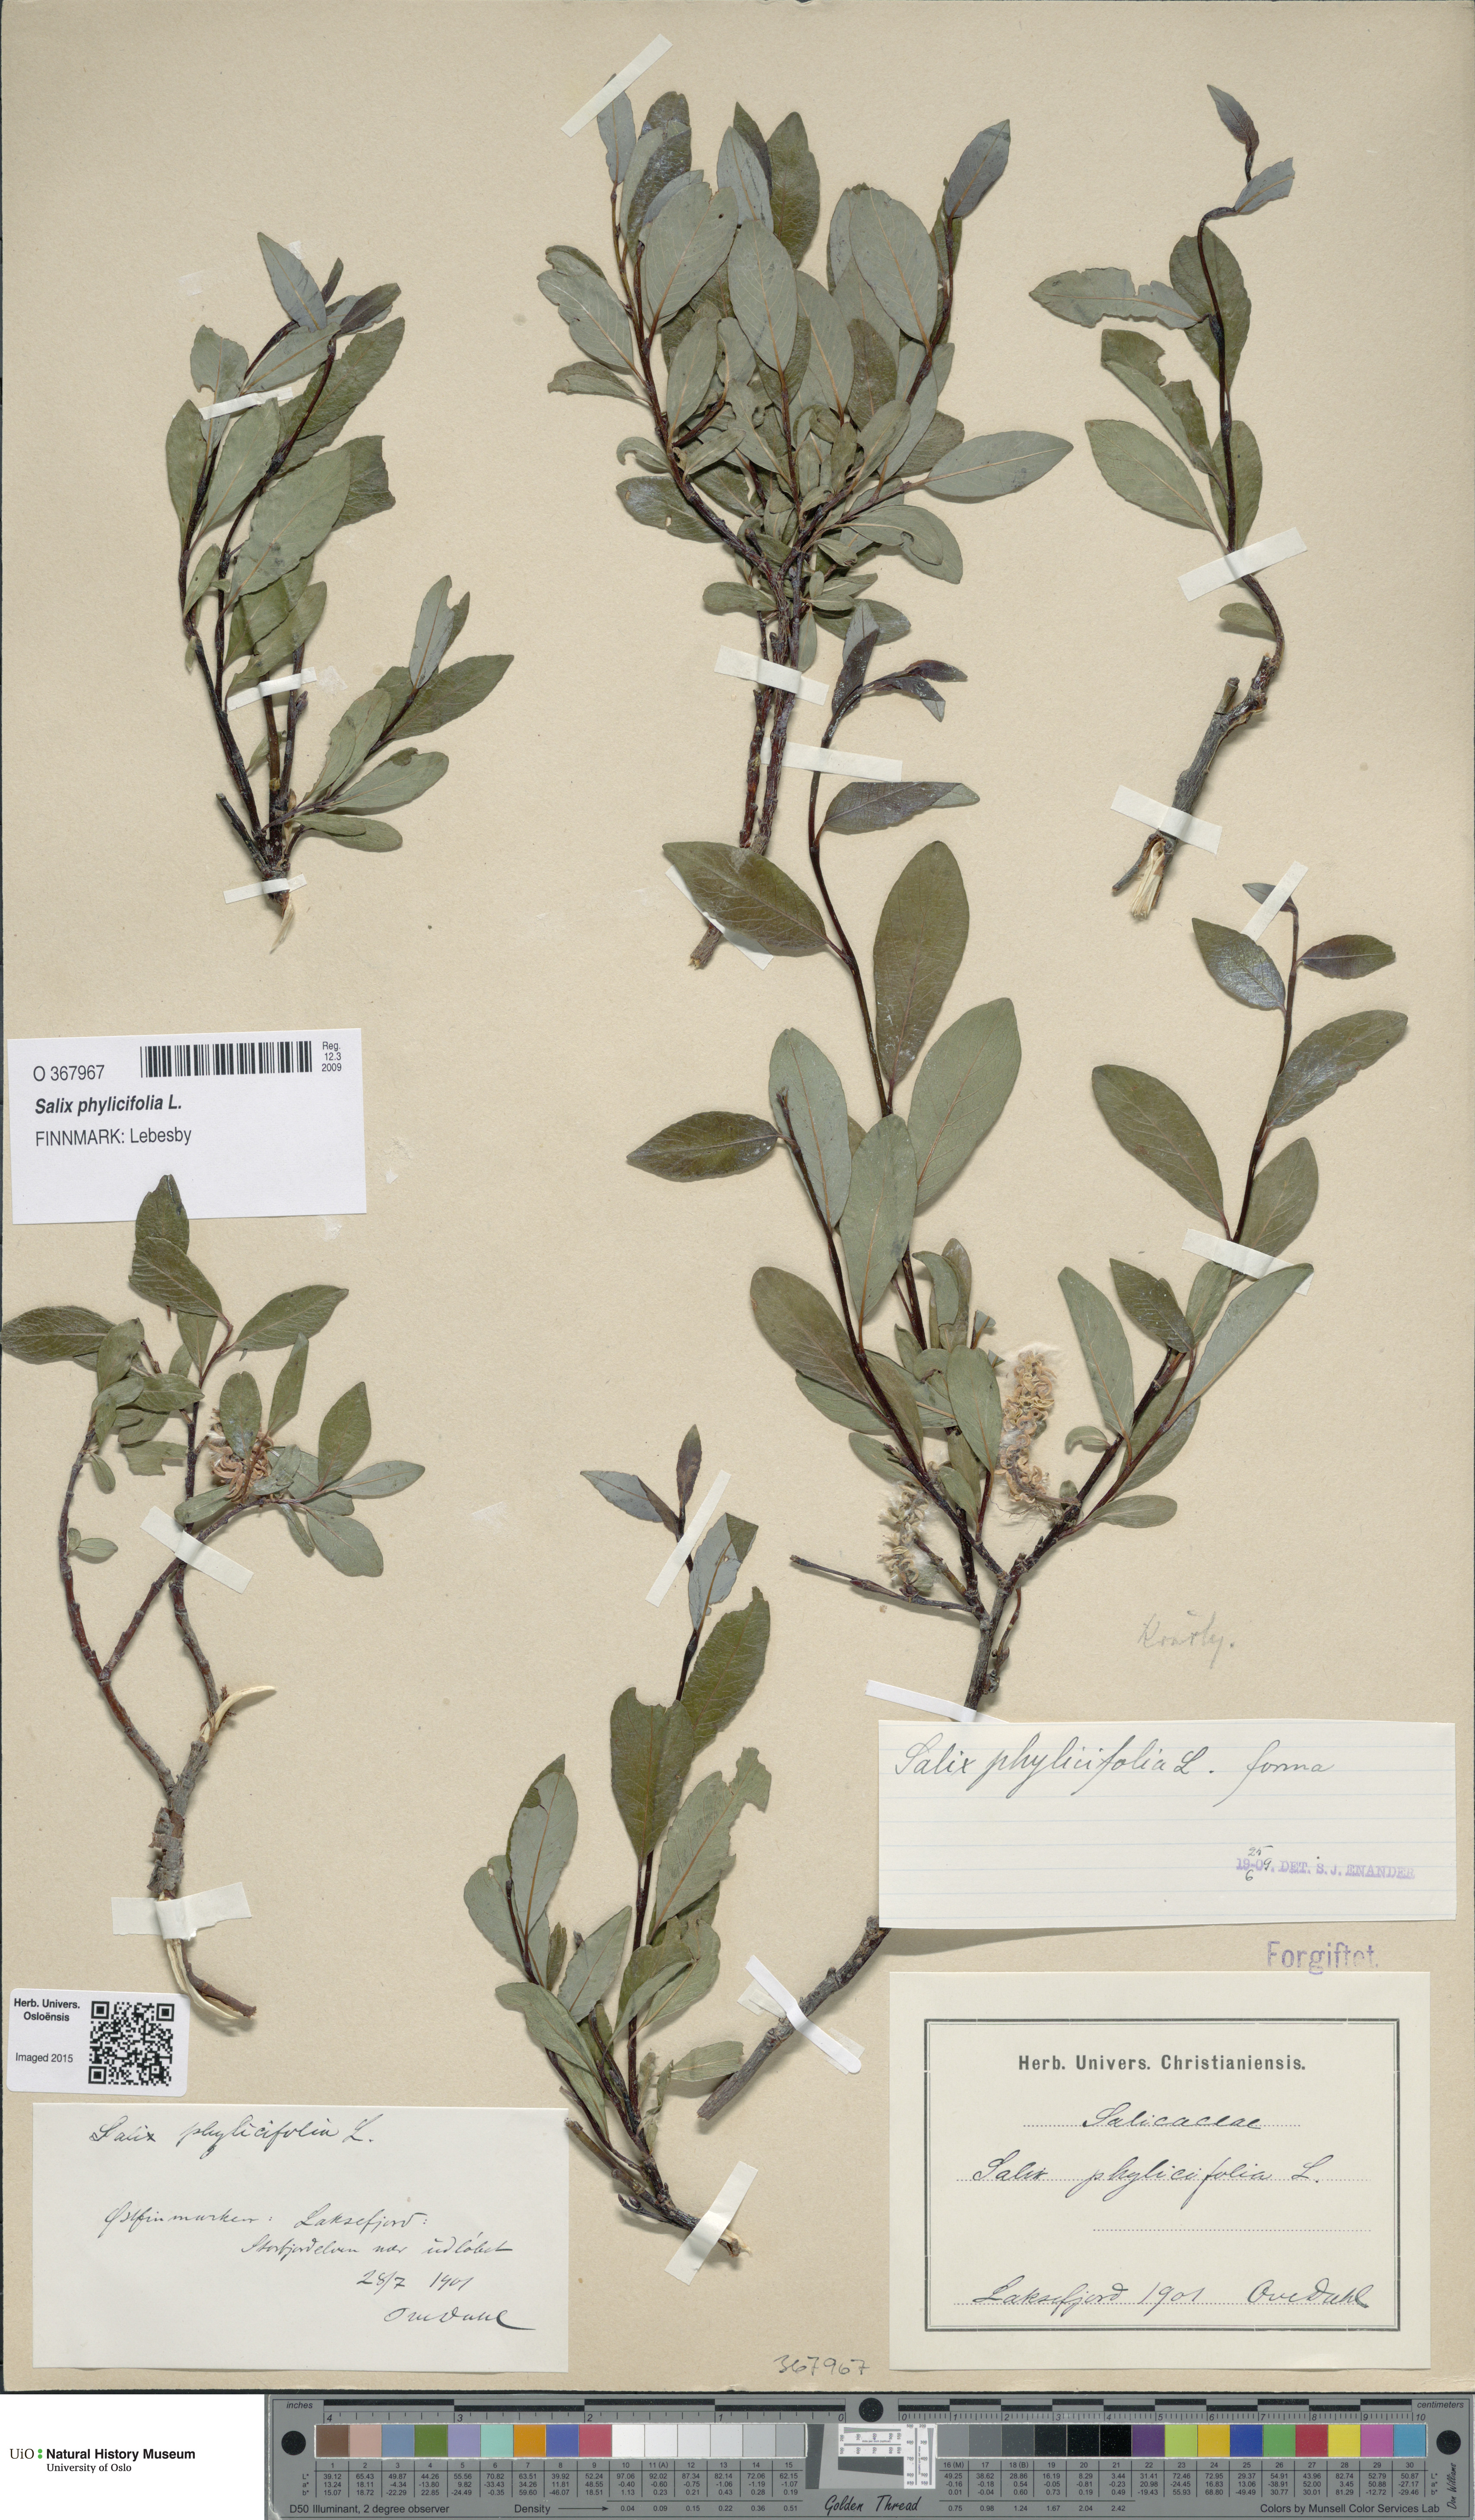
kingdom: Plantae
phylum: Tracheophyta
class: Magnoliopsida
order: Malpighiales
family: Salicaceae
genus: Salix
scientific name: Salix phylicifolia
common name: Tea-leaved willow
